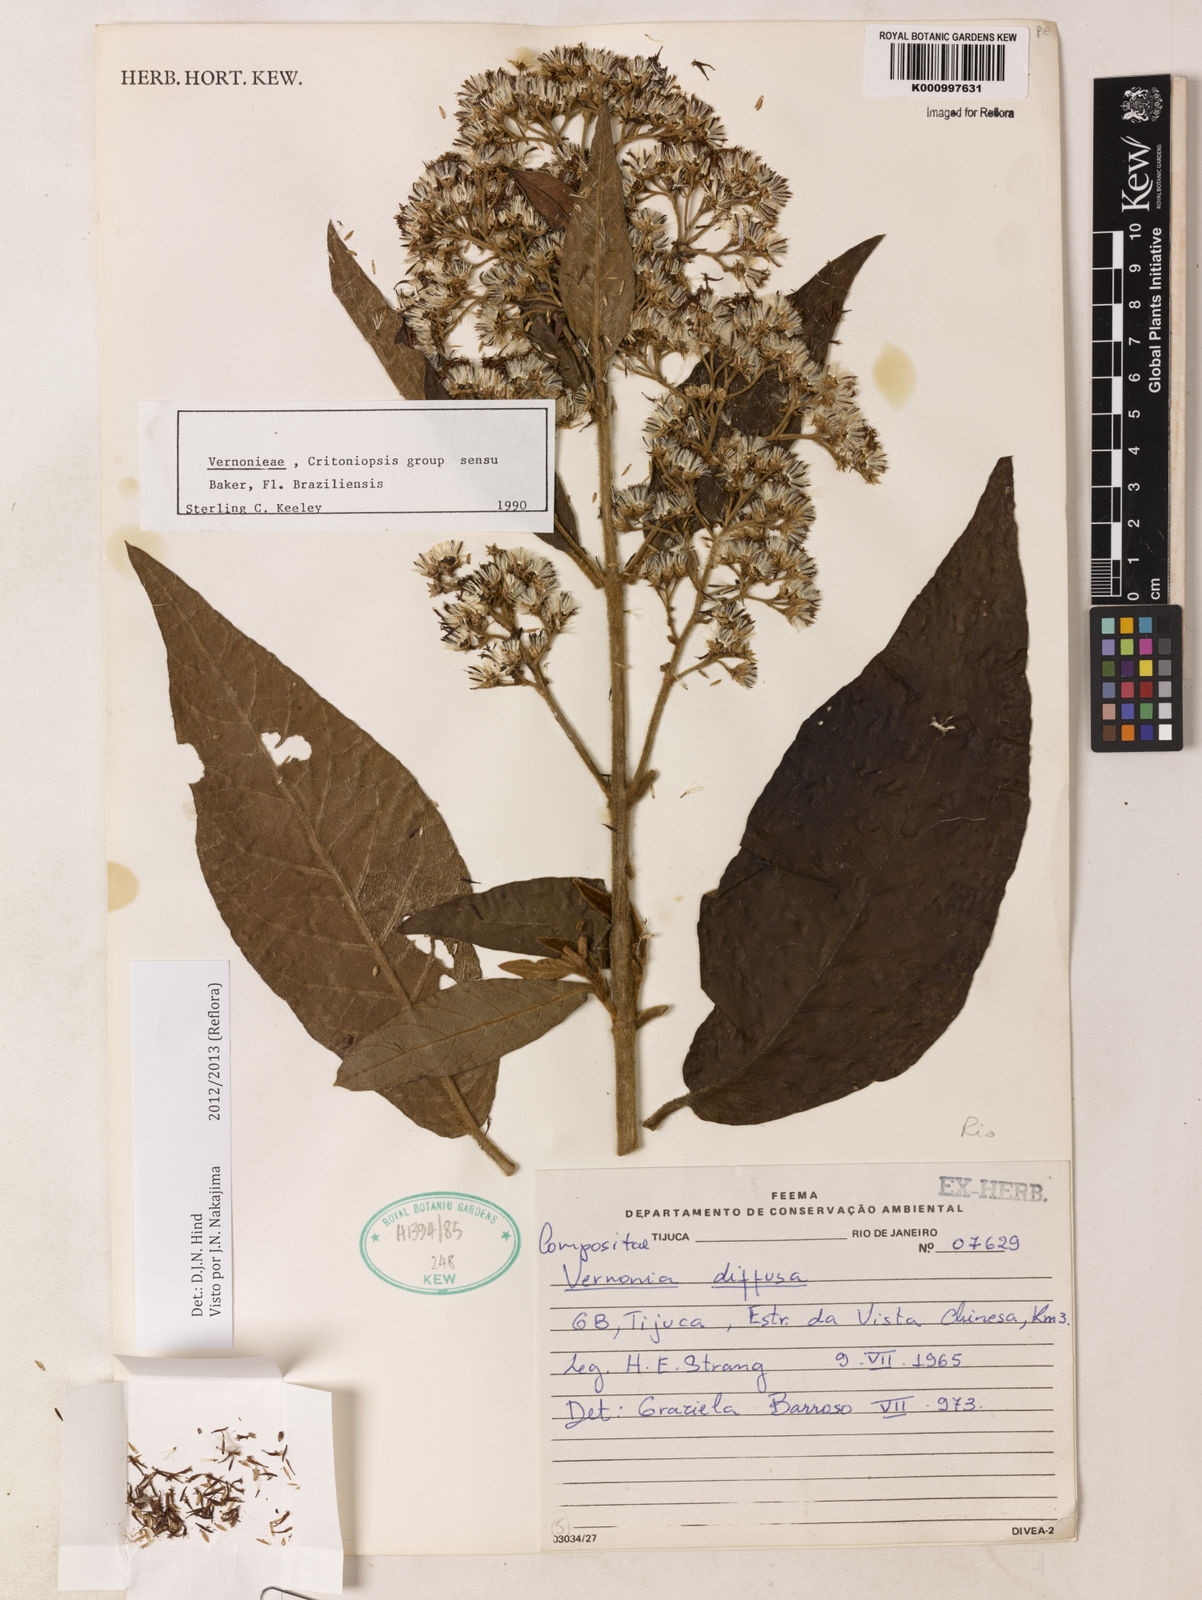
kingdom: Plantae
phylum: Tracheophyta
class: Magnoliopsida
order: Asterales
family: Asteraceae
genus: Vernonanthura
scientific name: Vernonanthura divaricata
